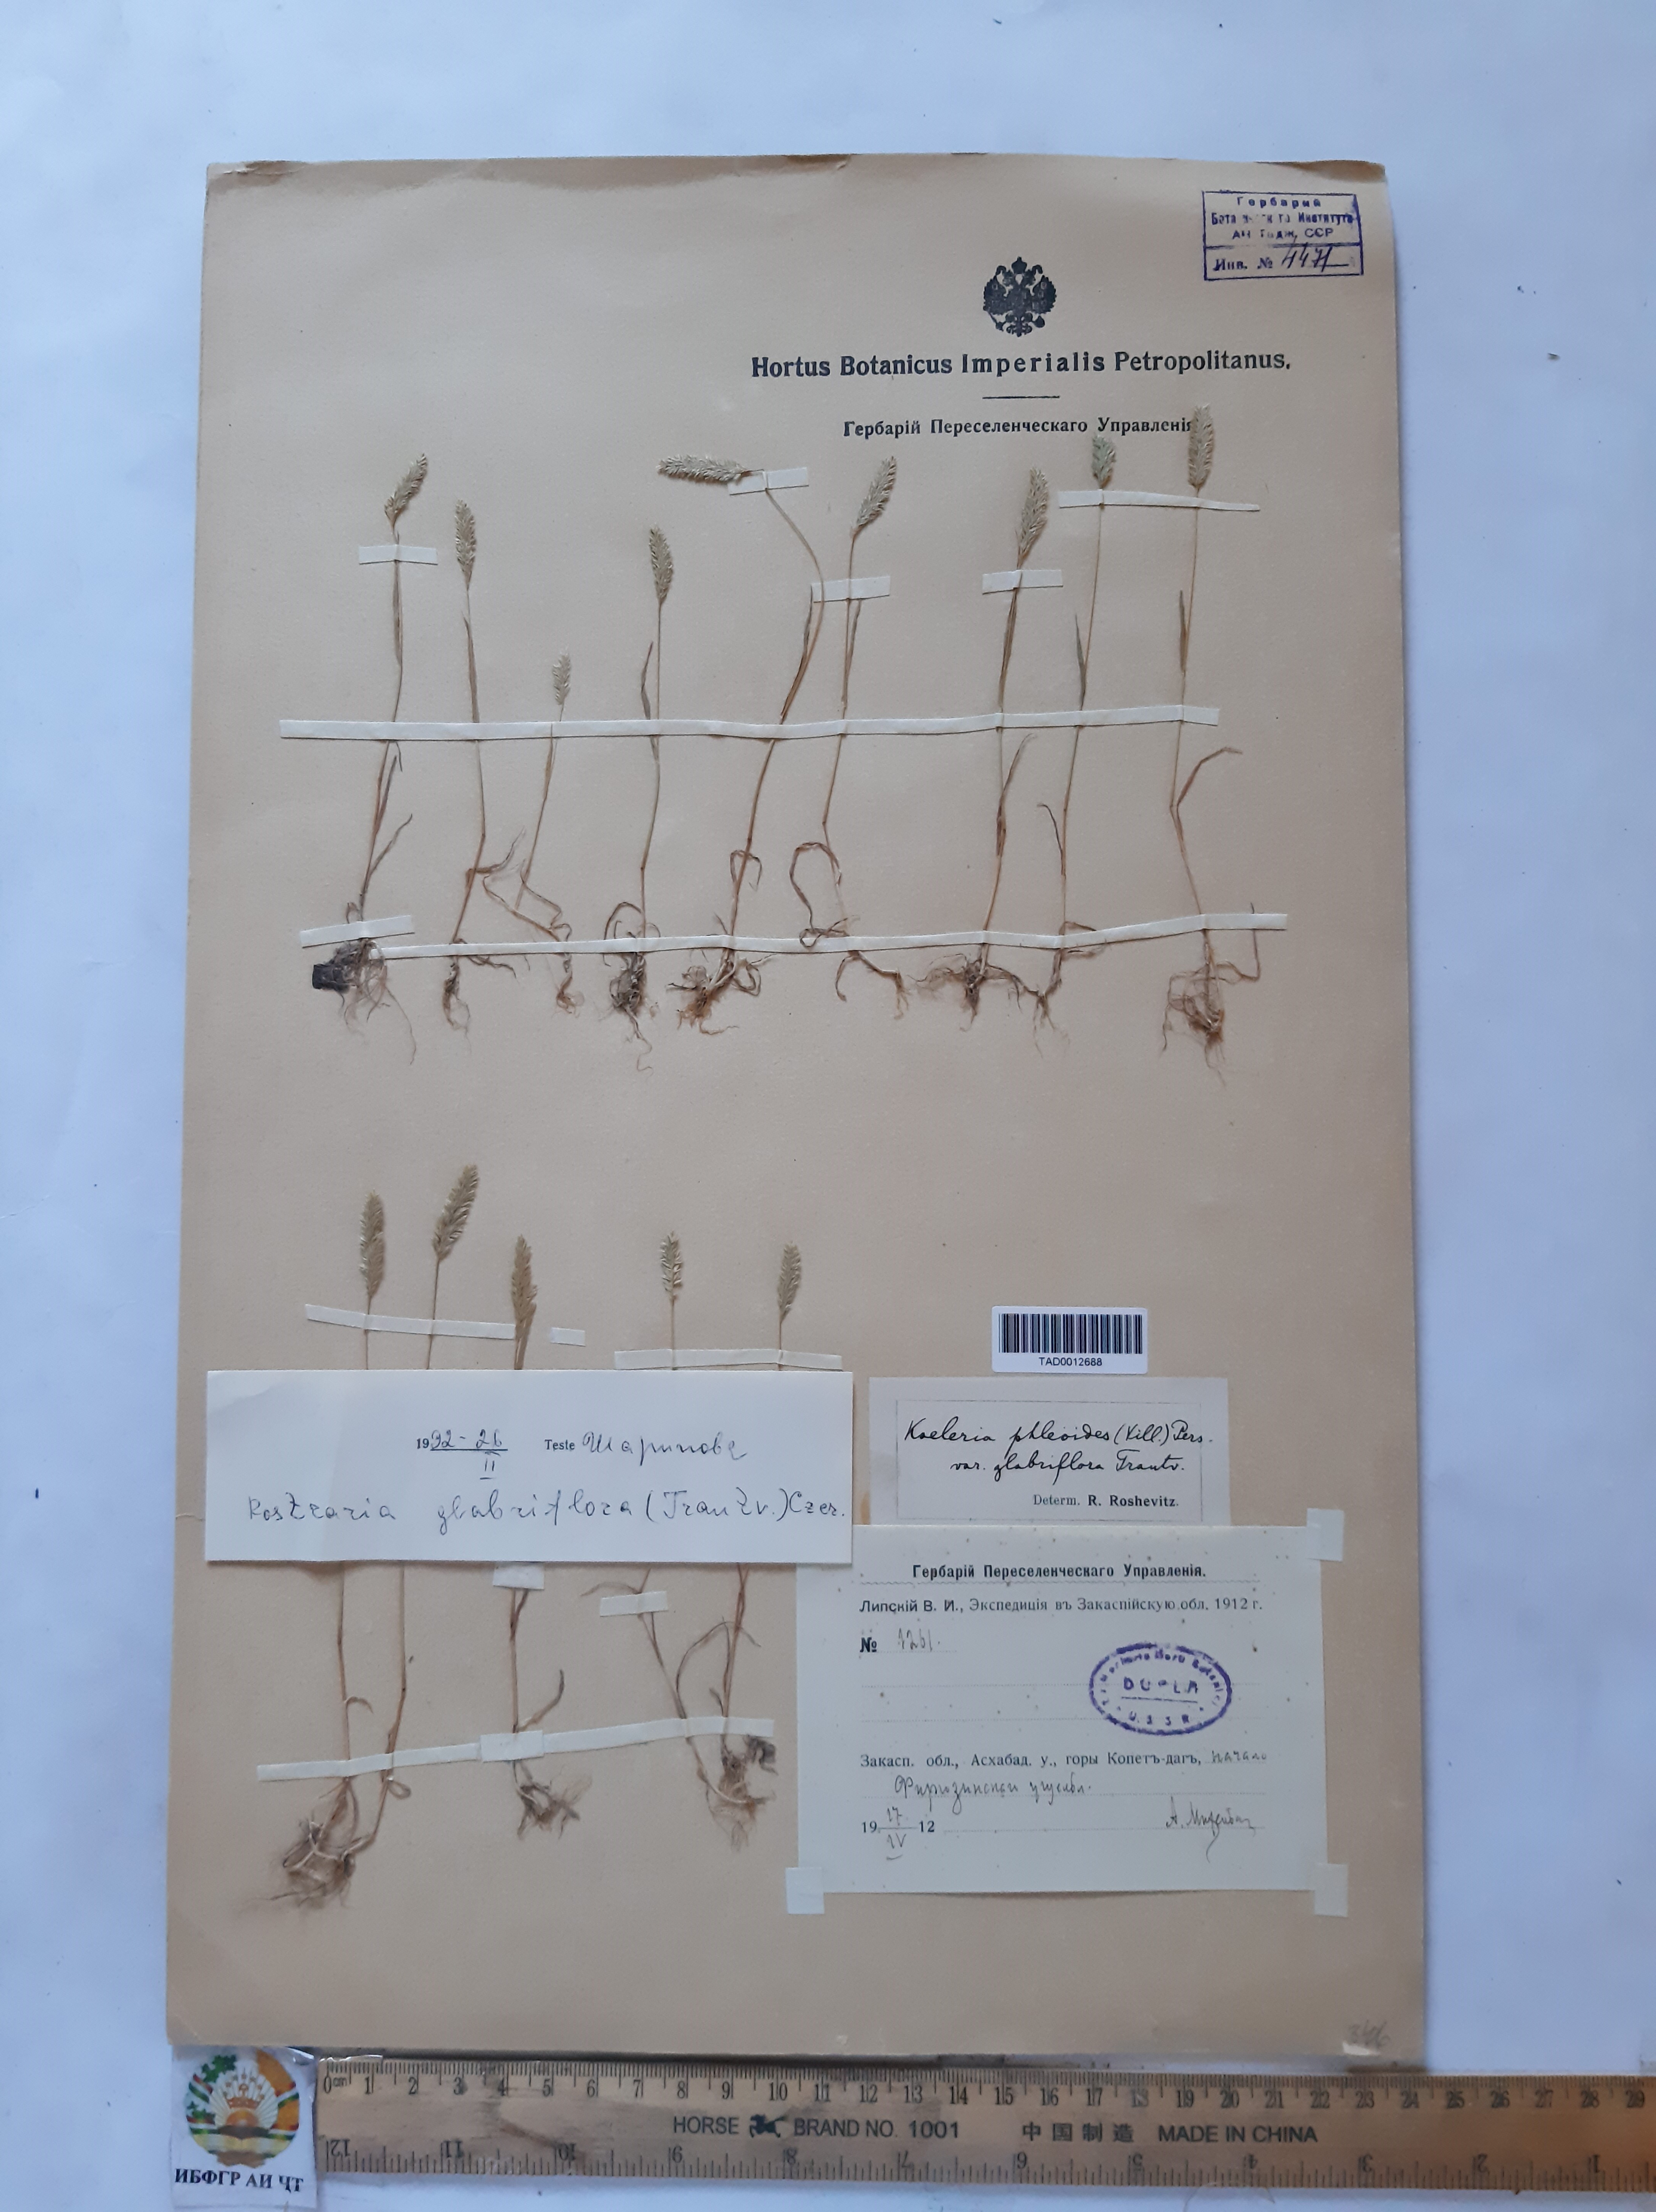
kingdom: Plantae
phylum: Tracheophyta
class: Liliopsida
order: Poales
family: Poaceae
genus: Rostraria
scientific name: Rostraria cristata
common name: Mediterranean hair-grass
